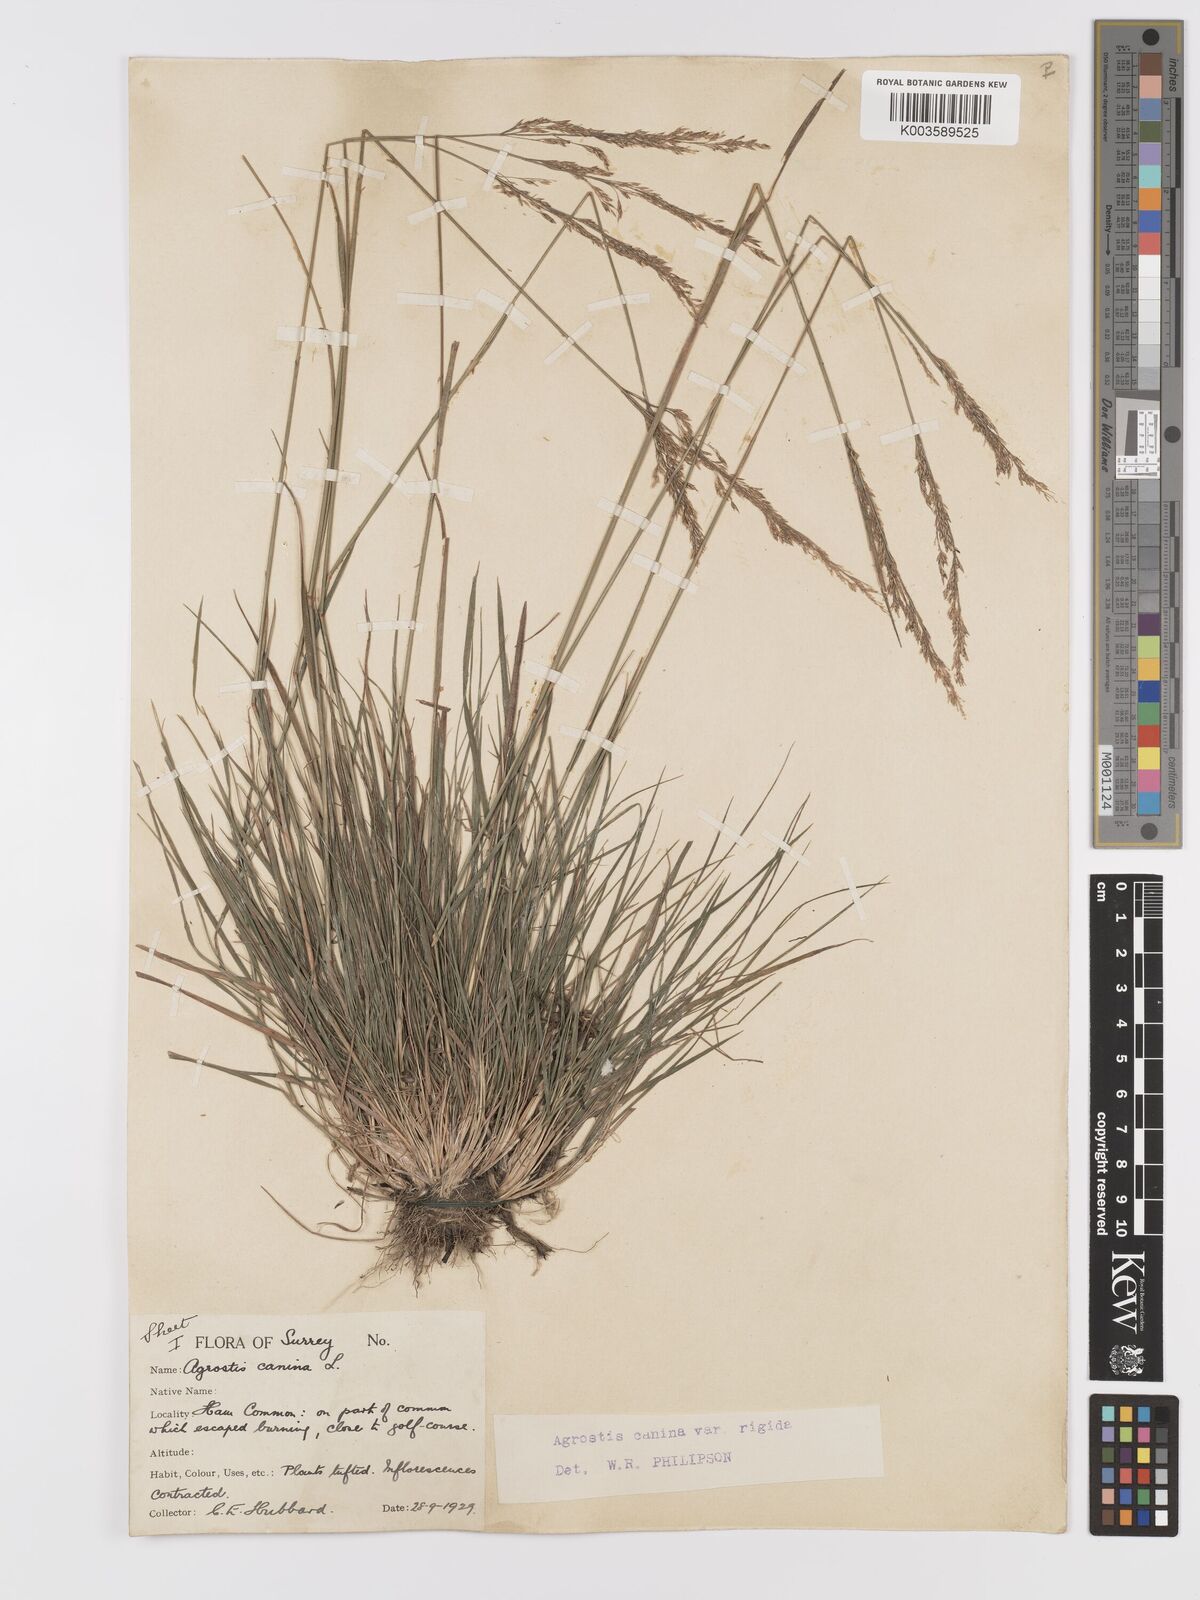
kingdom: Plantae
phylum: Tracheophyta
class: Liliopsida
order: Poales
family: Poaceae
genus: Agrostis
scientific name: Agrostis
